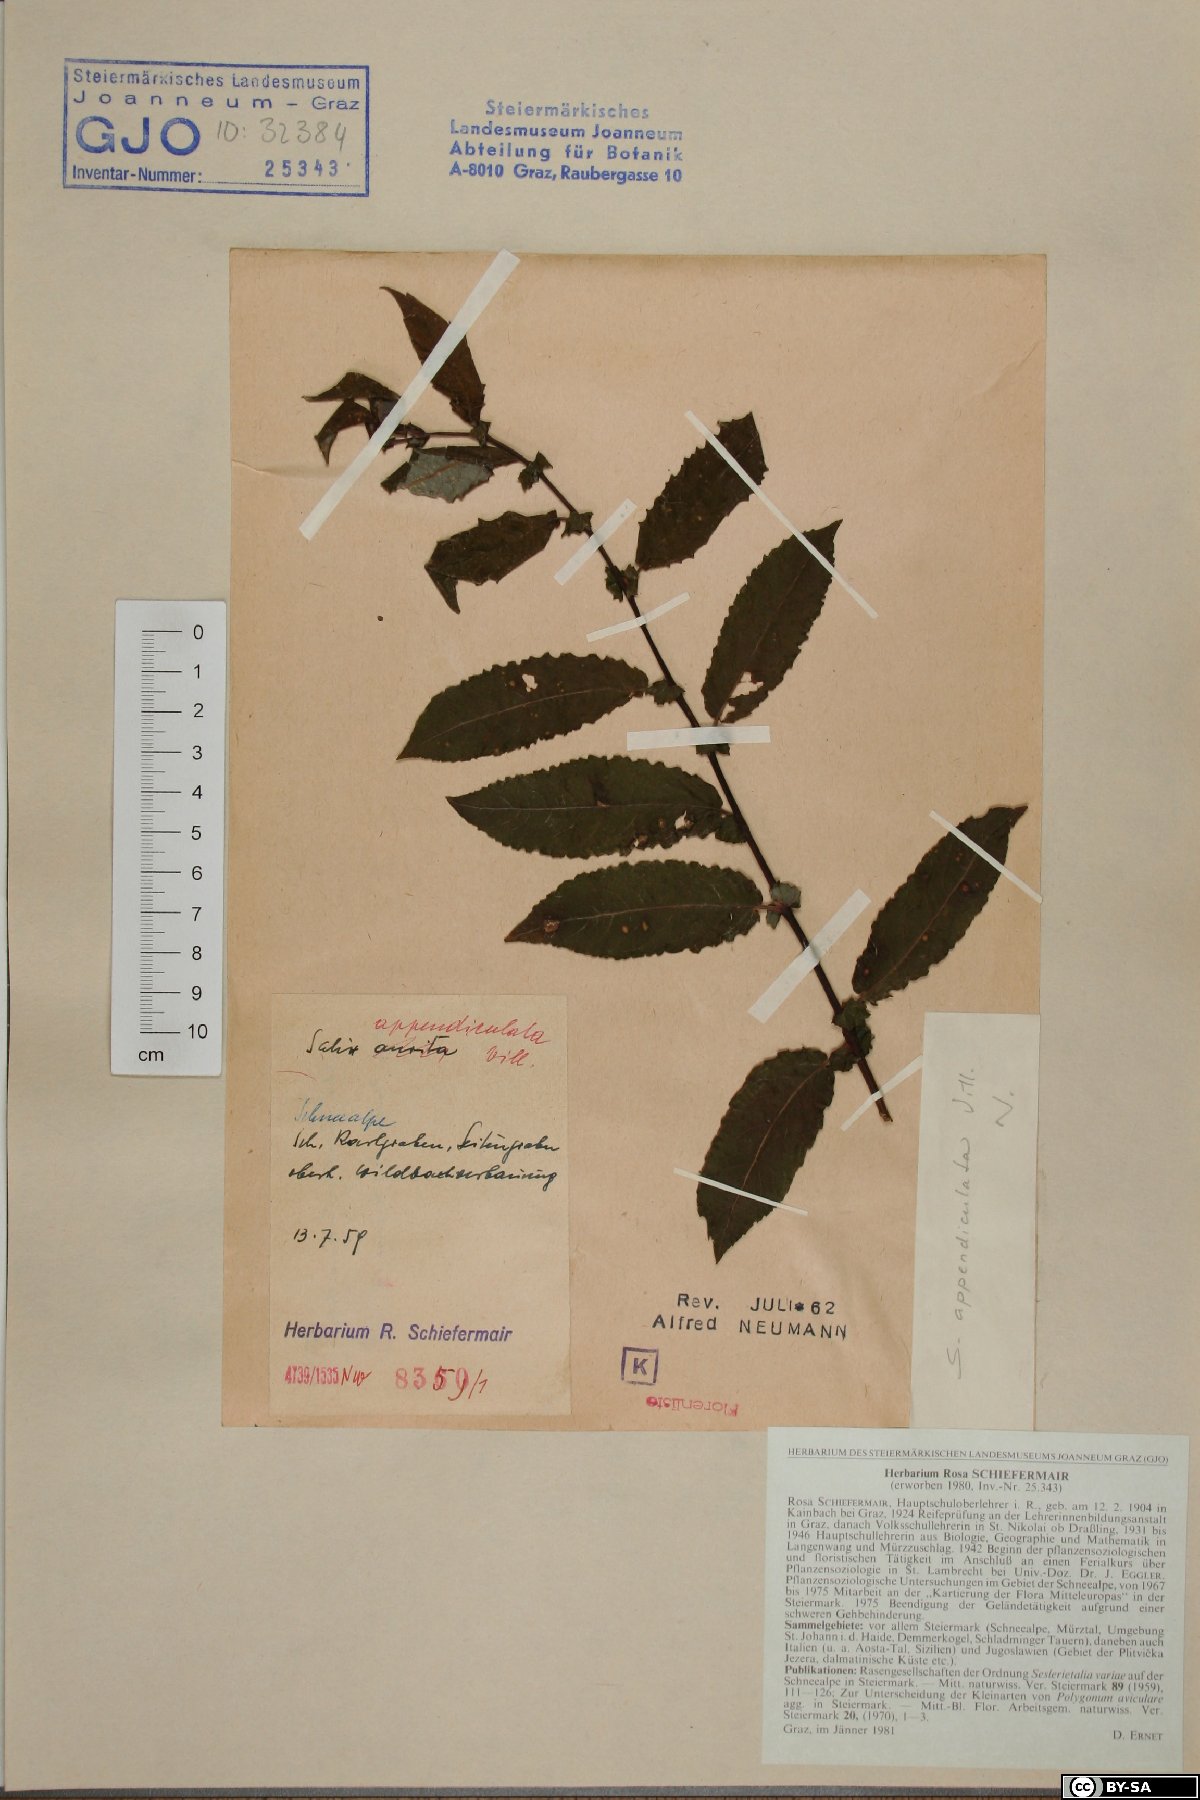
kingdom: Plantae
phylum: Tracheophyta
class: Magnoliopsida
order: Malpighiales
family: Salicaceae
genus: Salix
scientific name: Salix appendiculata
